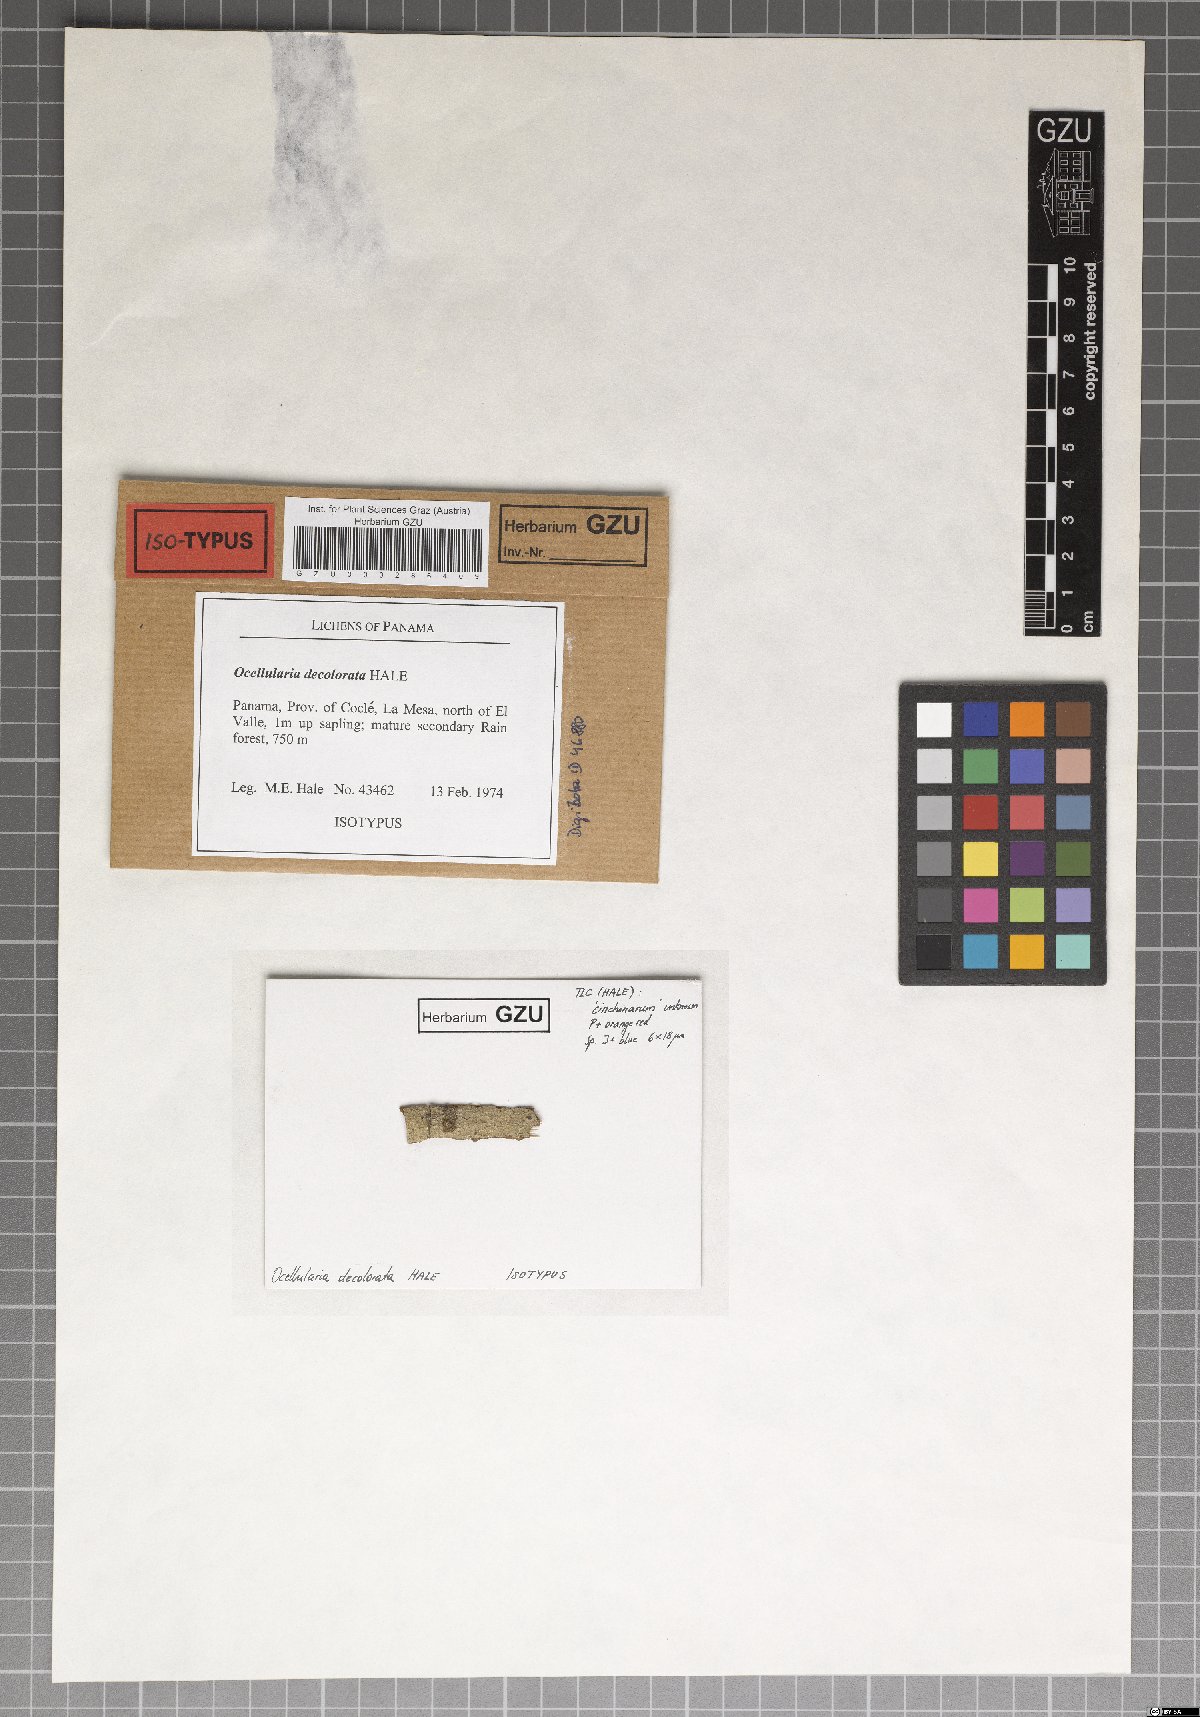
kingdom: Fungi
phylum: Ascomycota
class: Lecanoromycetes
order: Ostropales
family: Graphidaceae
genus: Ocellularia
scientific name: Ocellularia decolorata
